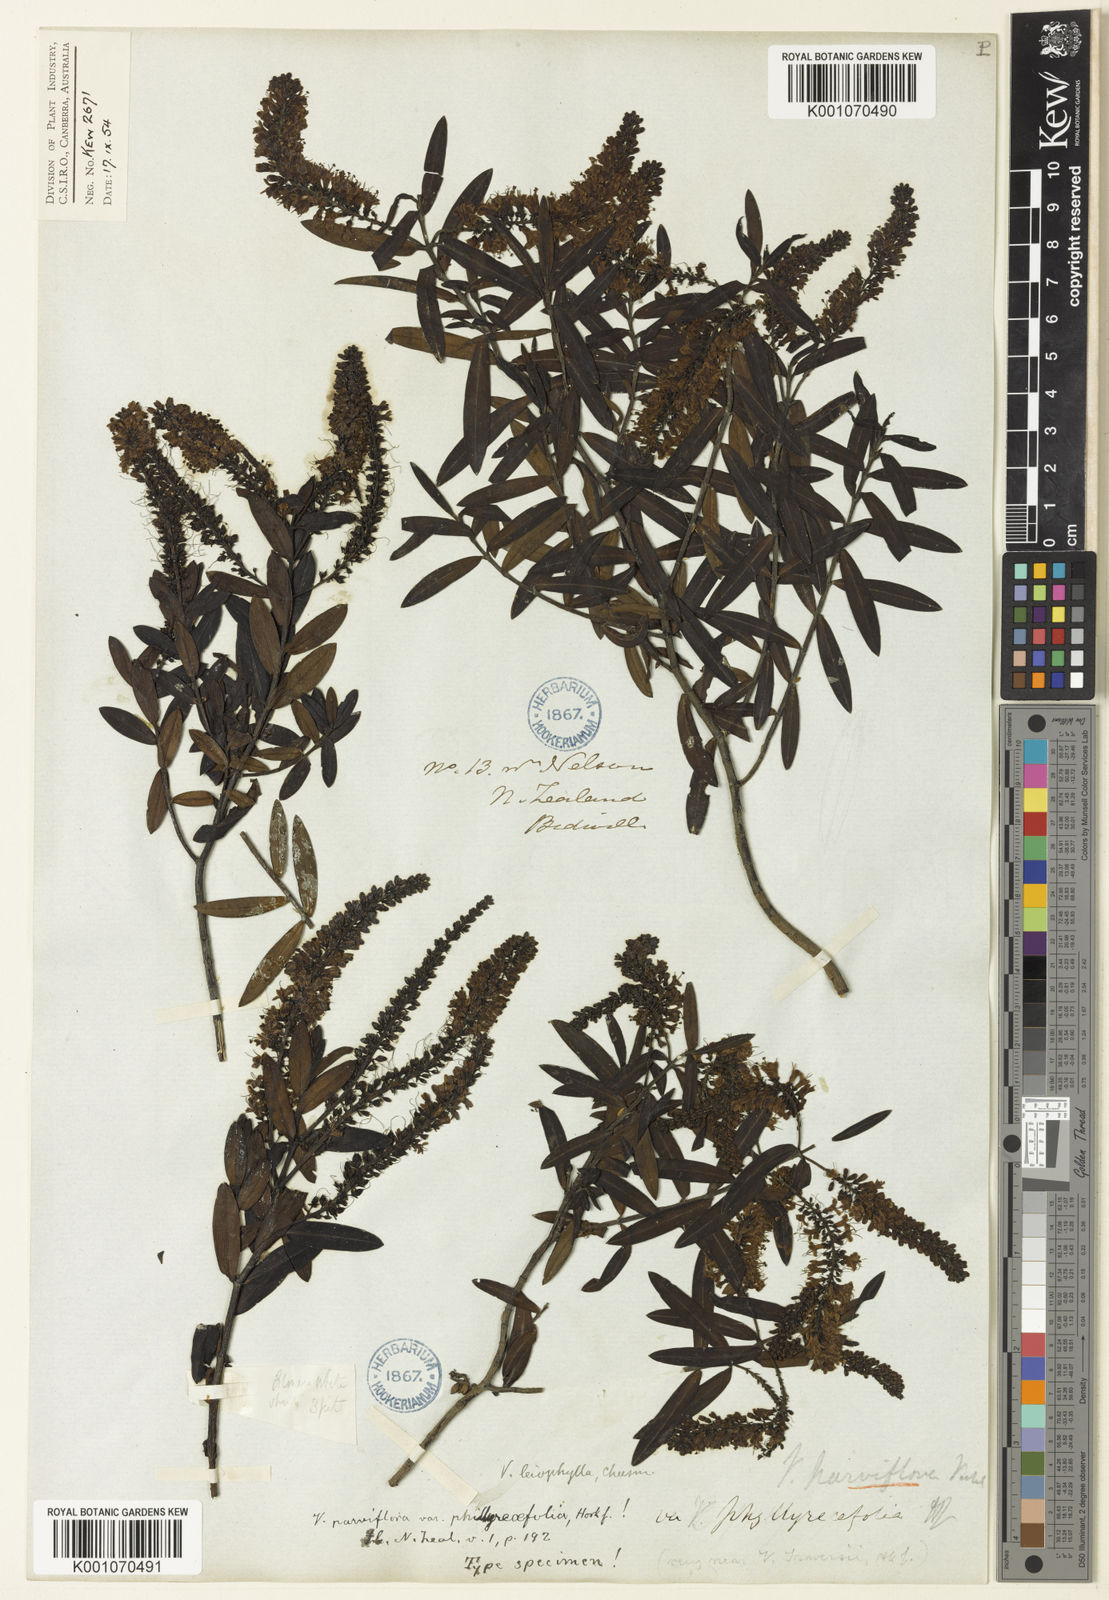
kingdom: Plantae
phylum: Tracheophyta
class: Magnoliopsida
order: Lamiales
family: Plantaginaceae
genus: Veronica
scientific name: Veronica leiophylla
